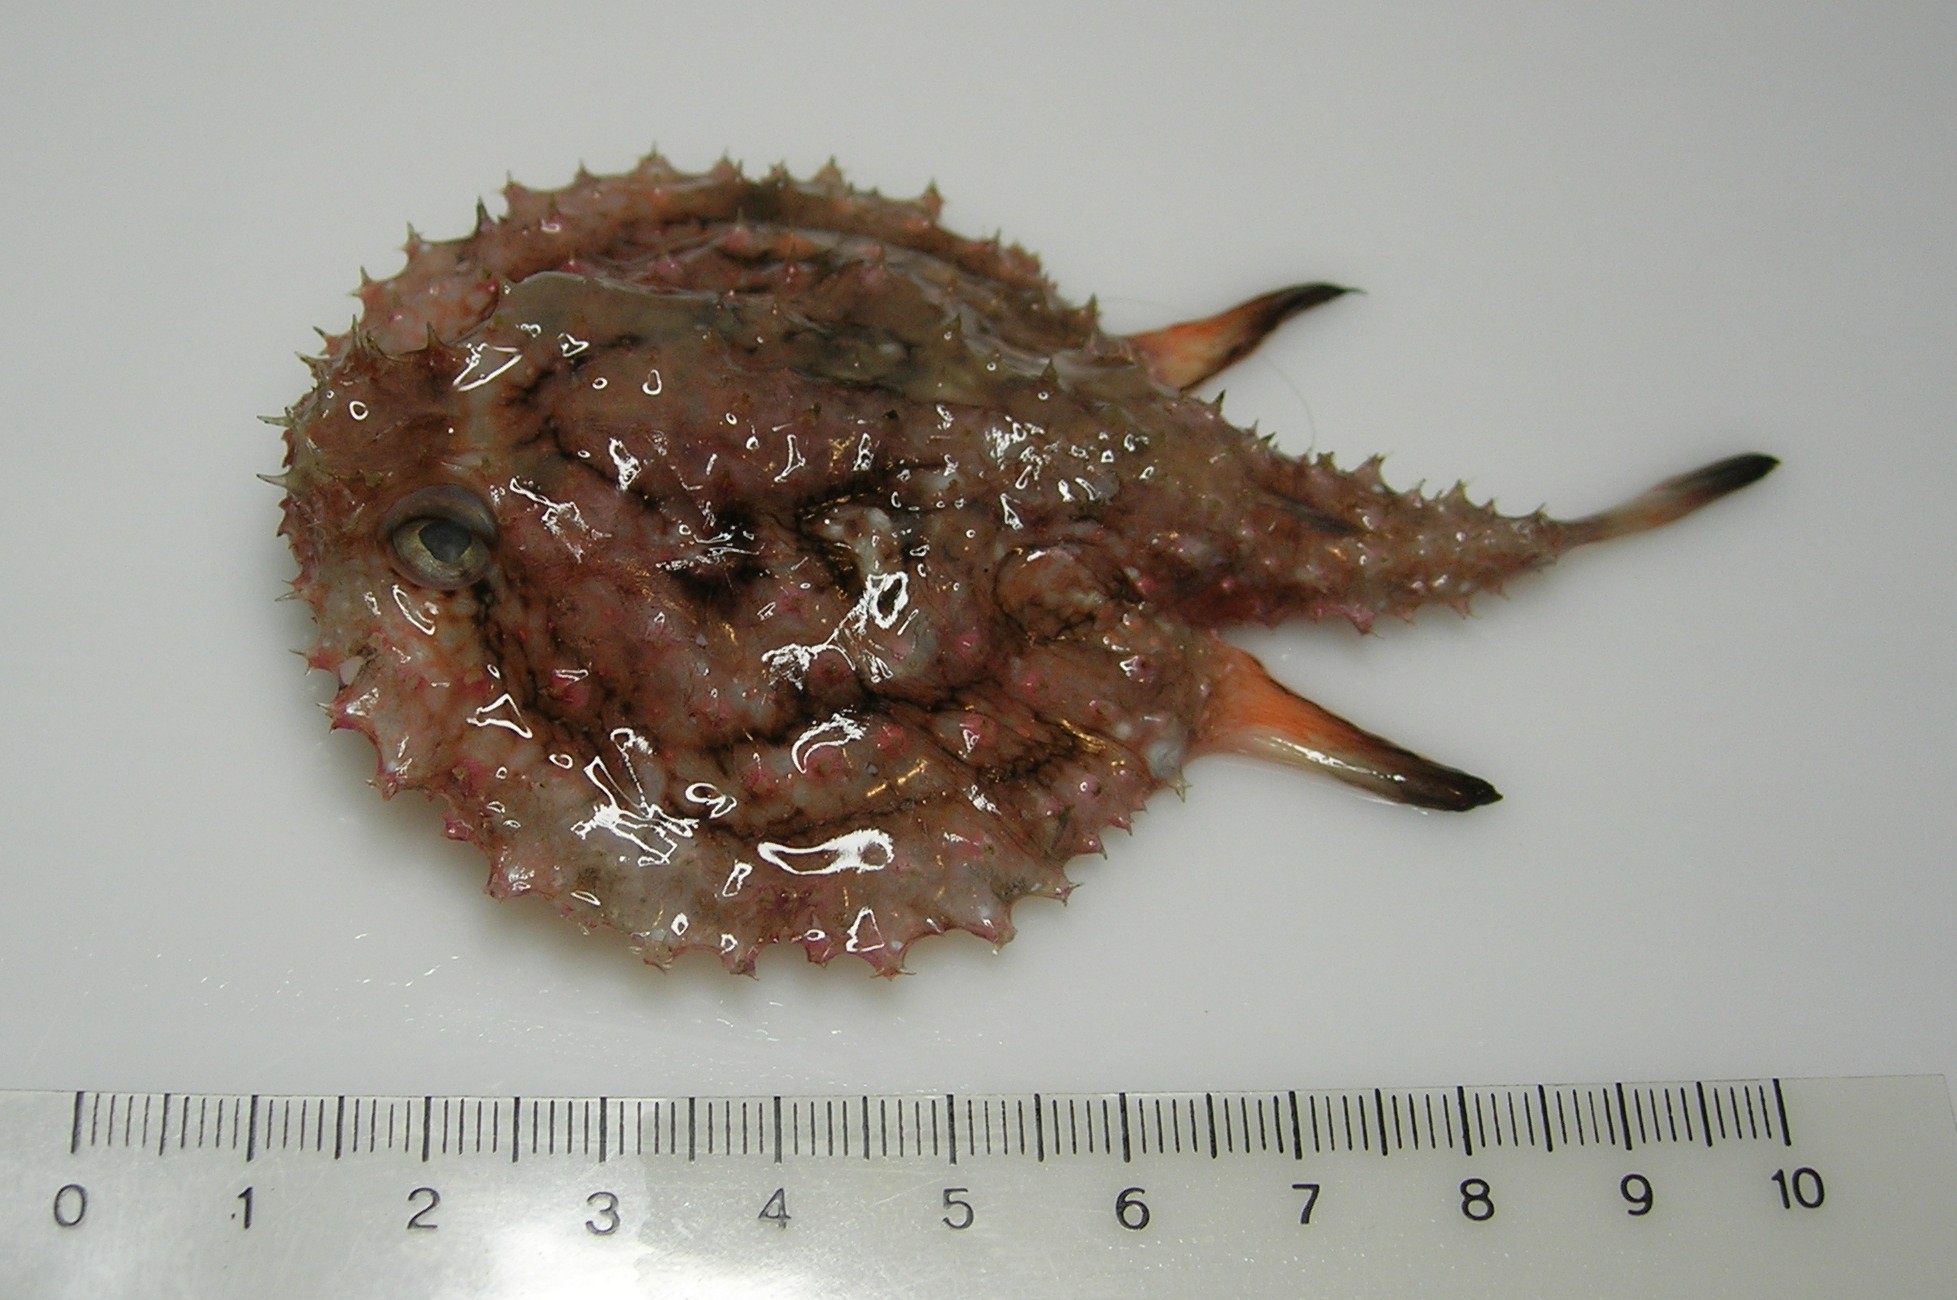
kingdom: Animalia
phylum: Chordata
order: Lophiiformes
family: Ogcocephalidae
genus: Halieutaea
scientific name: Halieutaea indica
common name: Indian handfish
